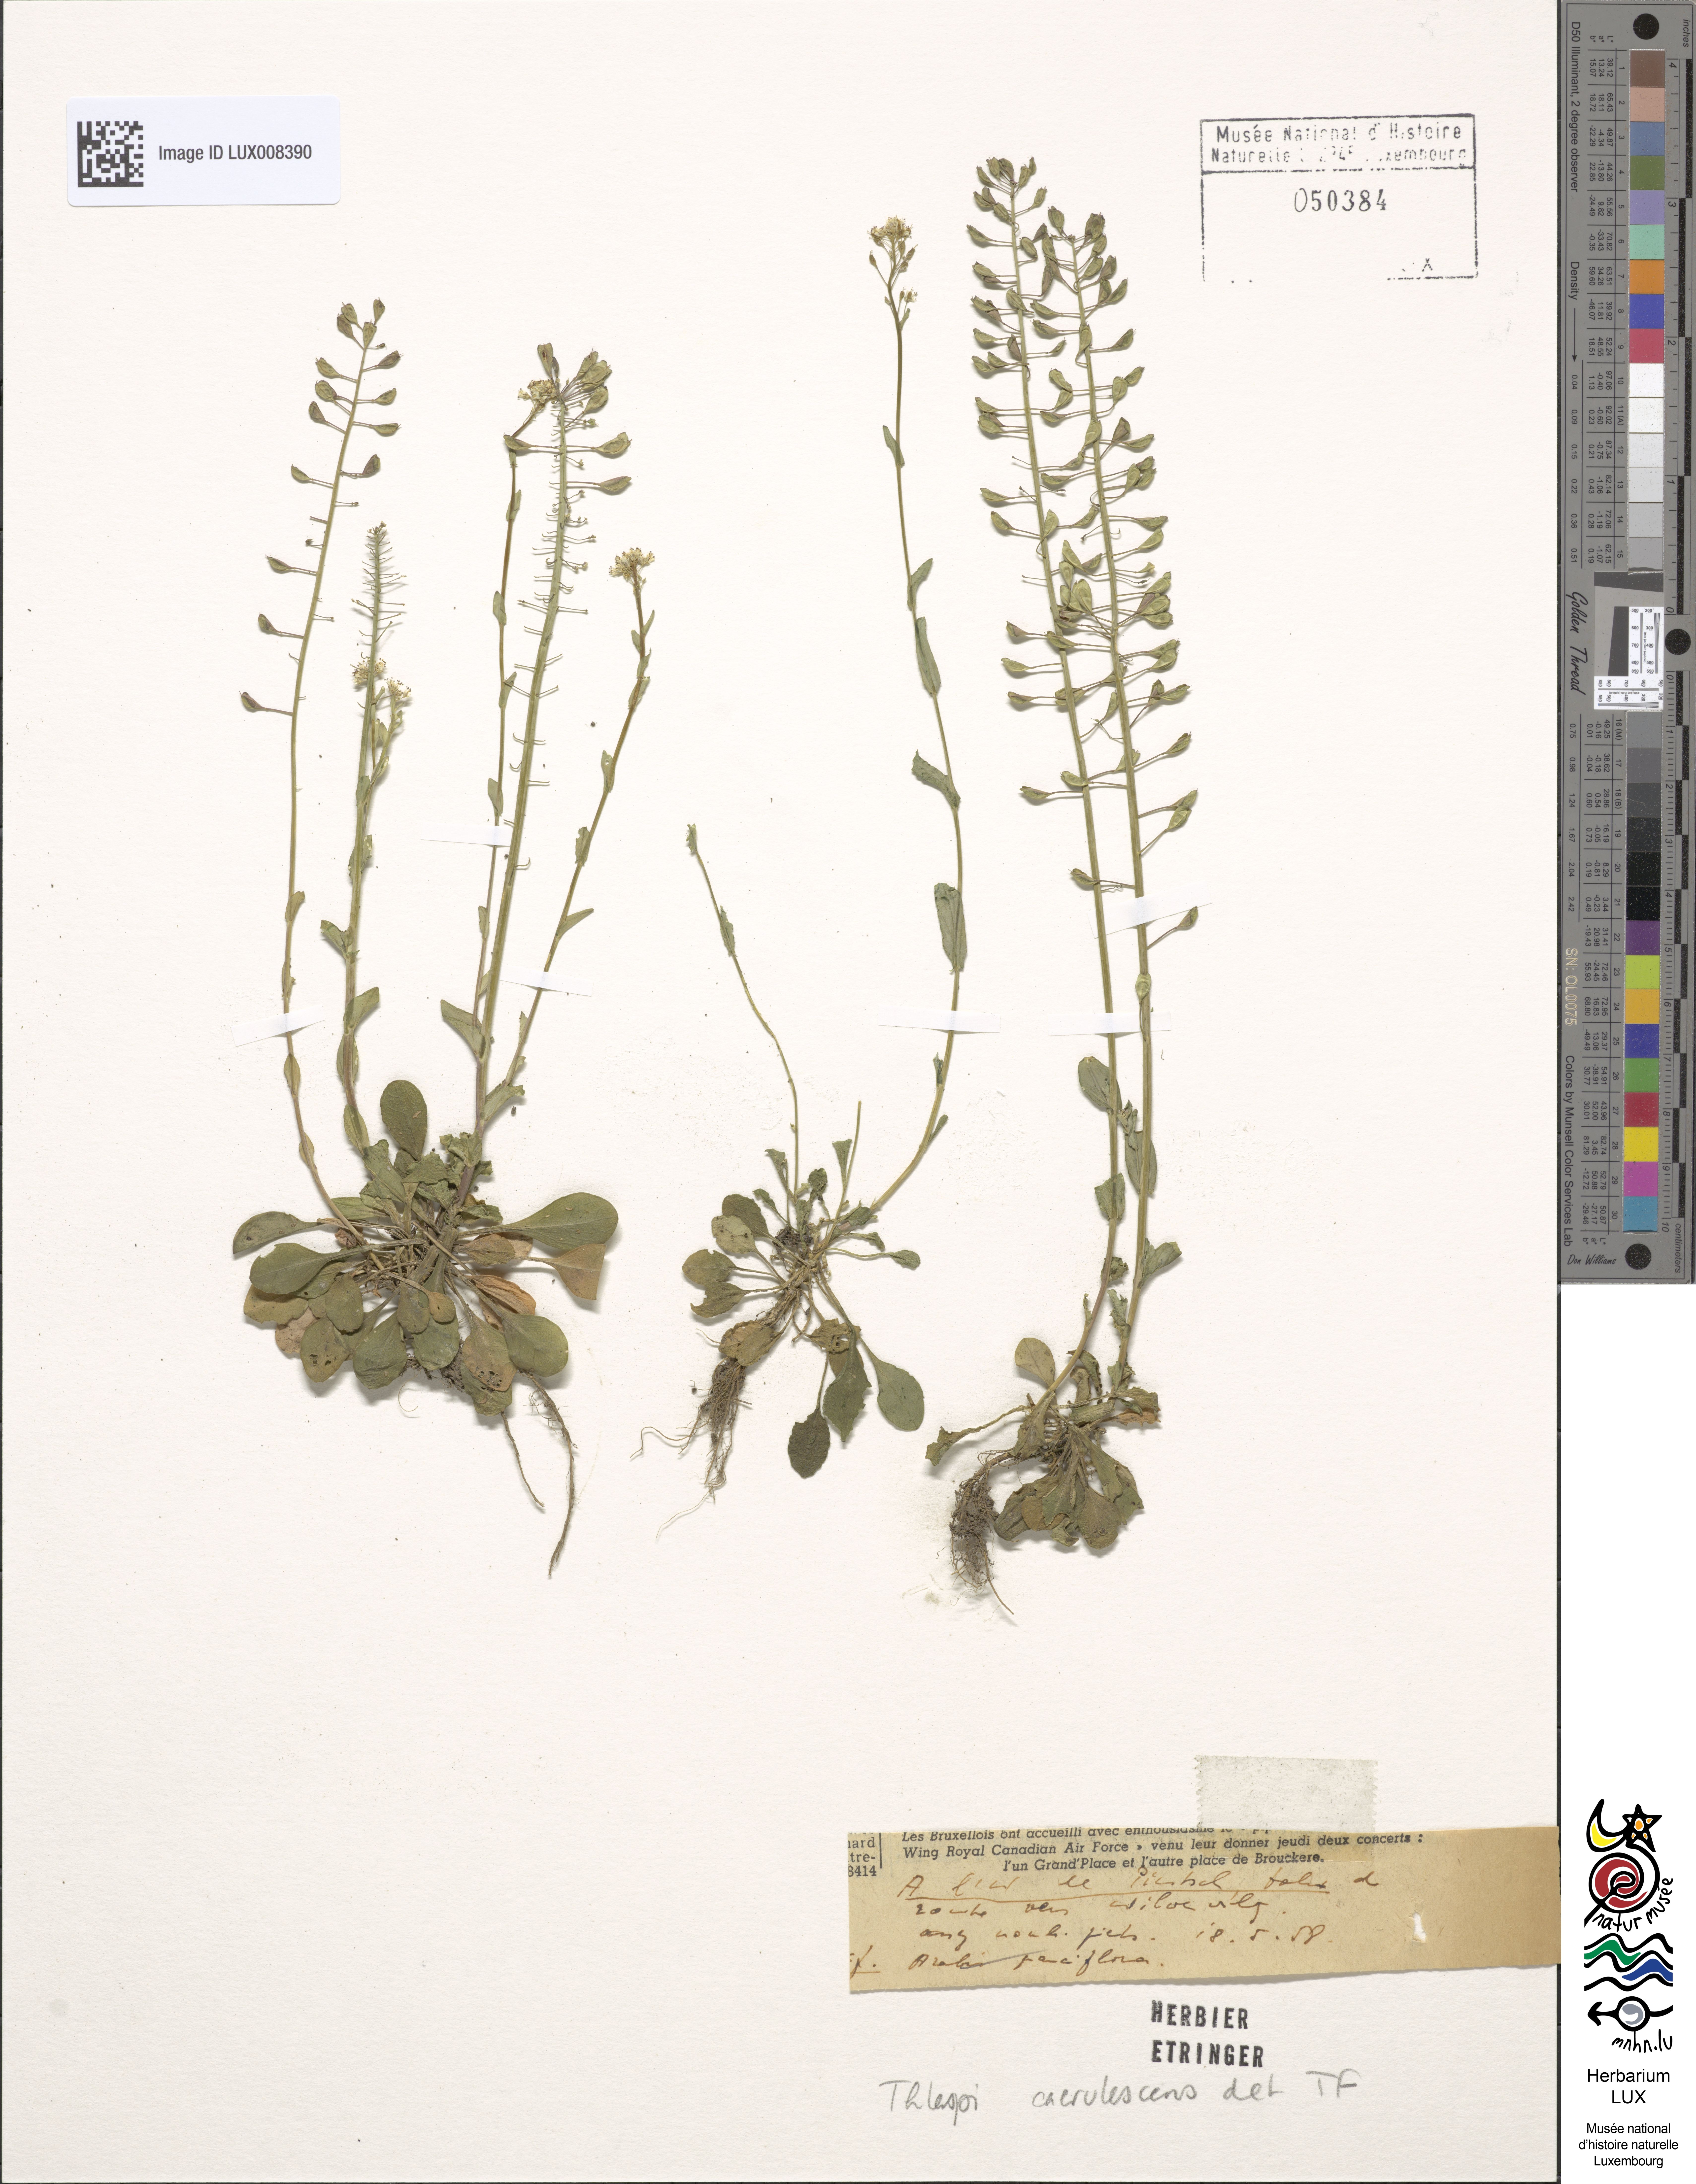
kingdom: Plantae
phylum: Tracheophyta
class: Magnoliopsida
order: Brassicales
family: Brassicaceae
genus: Noccaea
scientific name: Noccaea caerulescens
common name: Alpine pennycress
